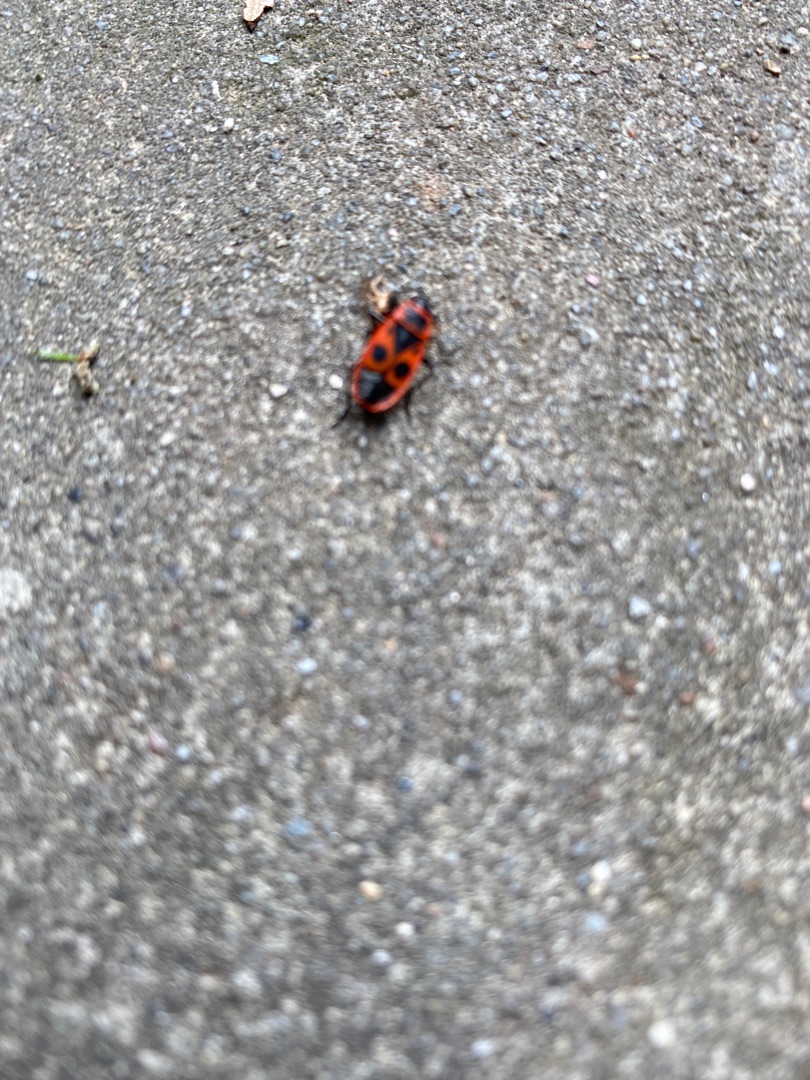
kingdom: Animalia
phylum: Arthropoda
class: Insecta
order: Hemiptera
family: Pyrrhocoridae
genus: Pyrrhocoris
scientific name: Pyrrhocoris apterus
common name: Ildtæge
